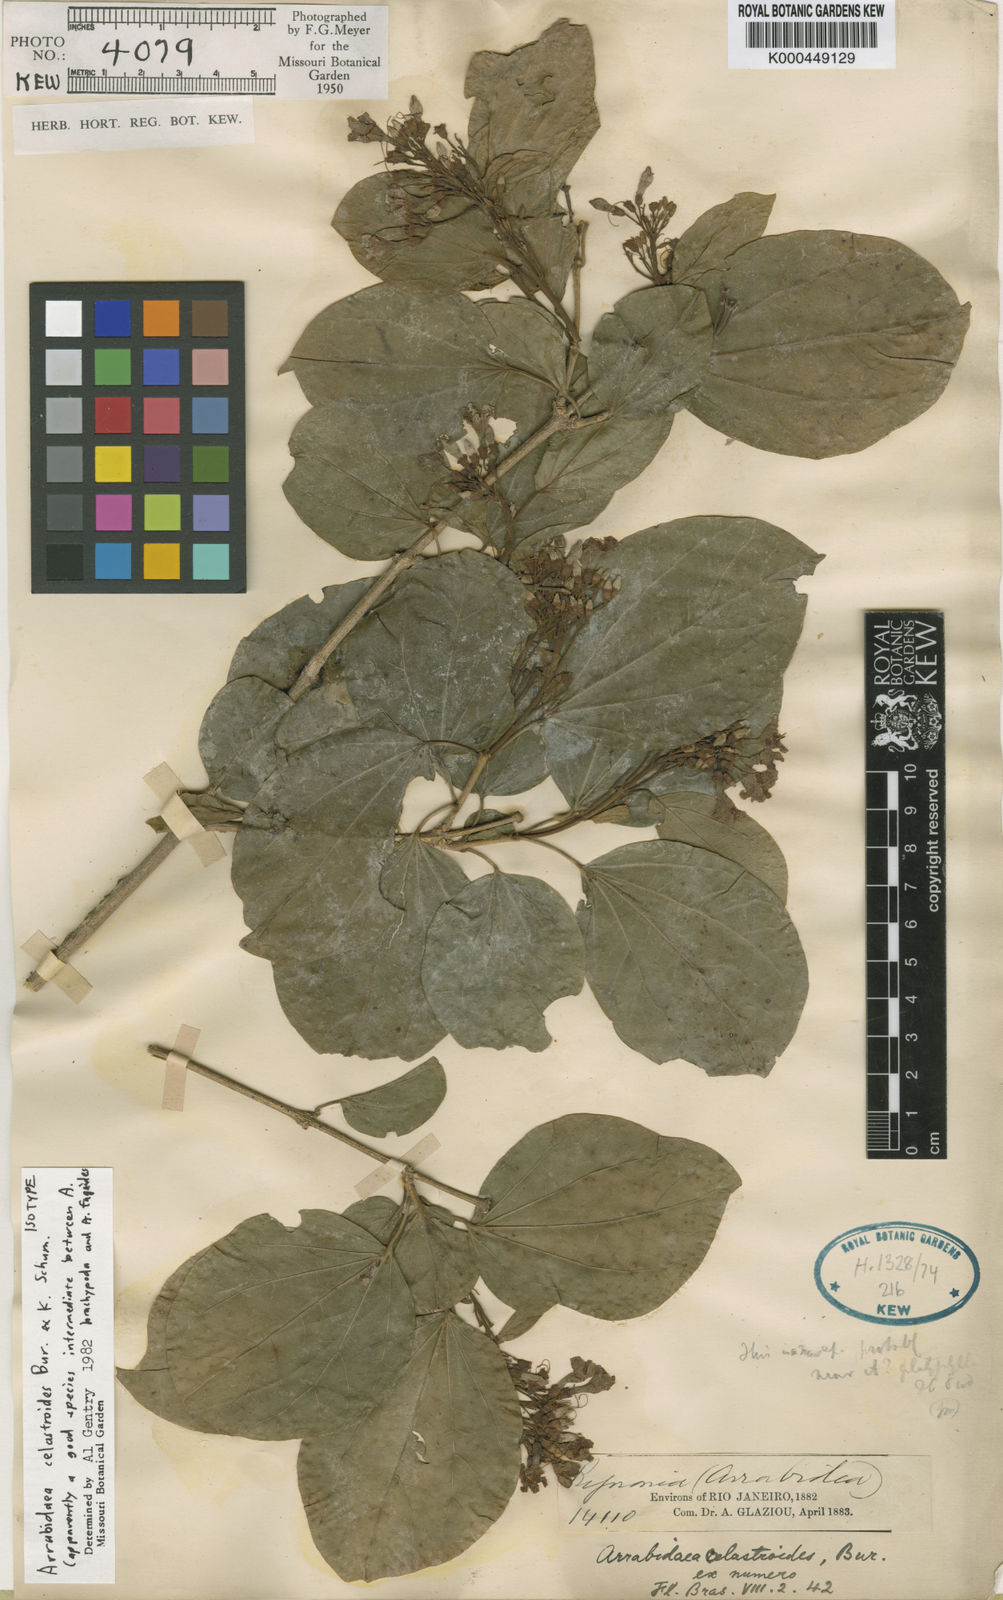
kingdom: Plantae
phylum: Tracheophyta
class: Magnoliopsida
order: Lamiales
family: Bignoniaceae
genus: Fridericia
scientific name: Fridericia platyphylla
